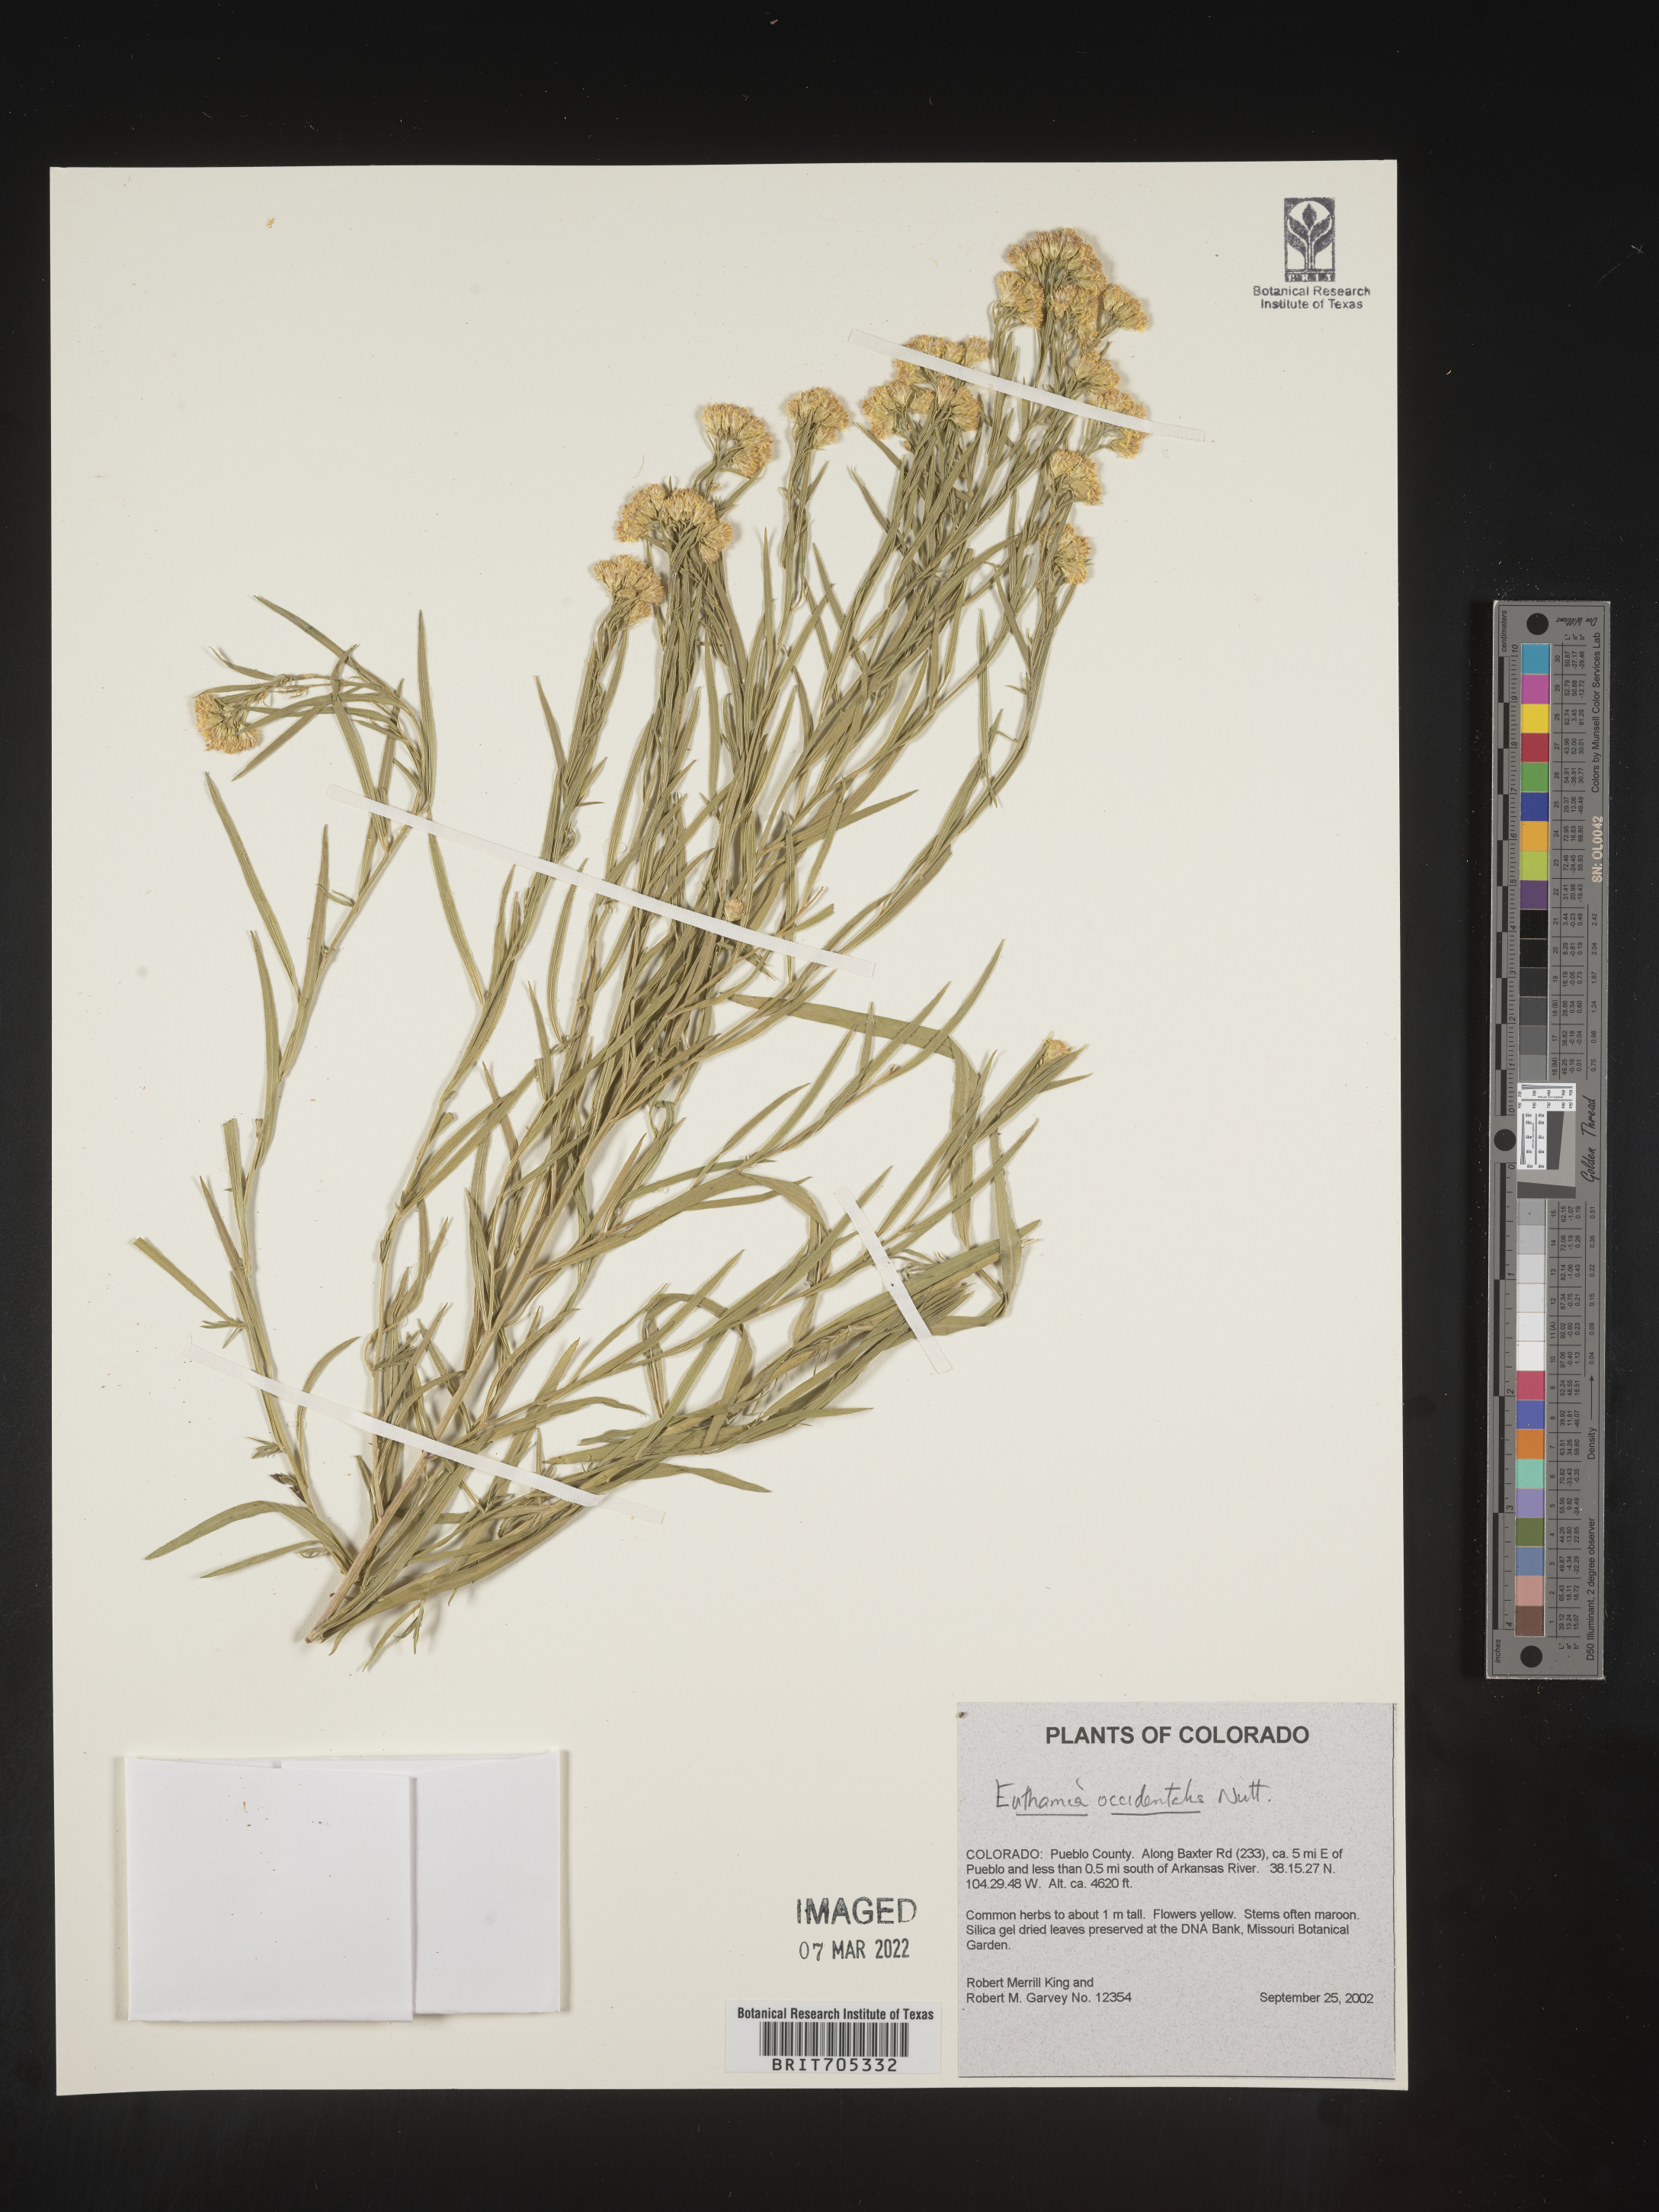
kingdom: Plantae
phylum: Tracheophyta
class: Magnoliopsida
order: Asterales
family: Asteraceae
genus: Euthamia
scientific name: Euthamia occidentalis
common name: Western goldentop
